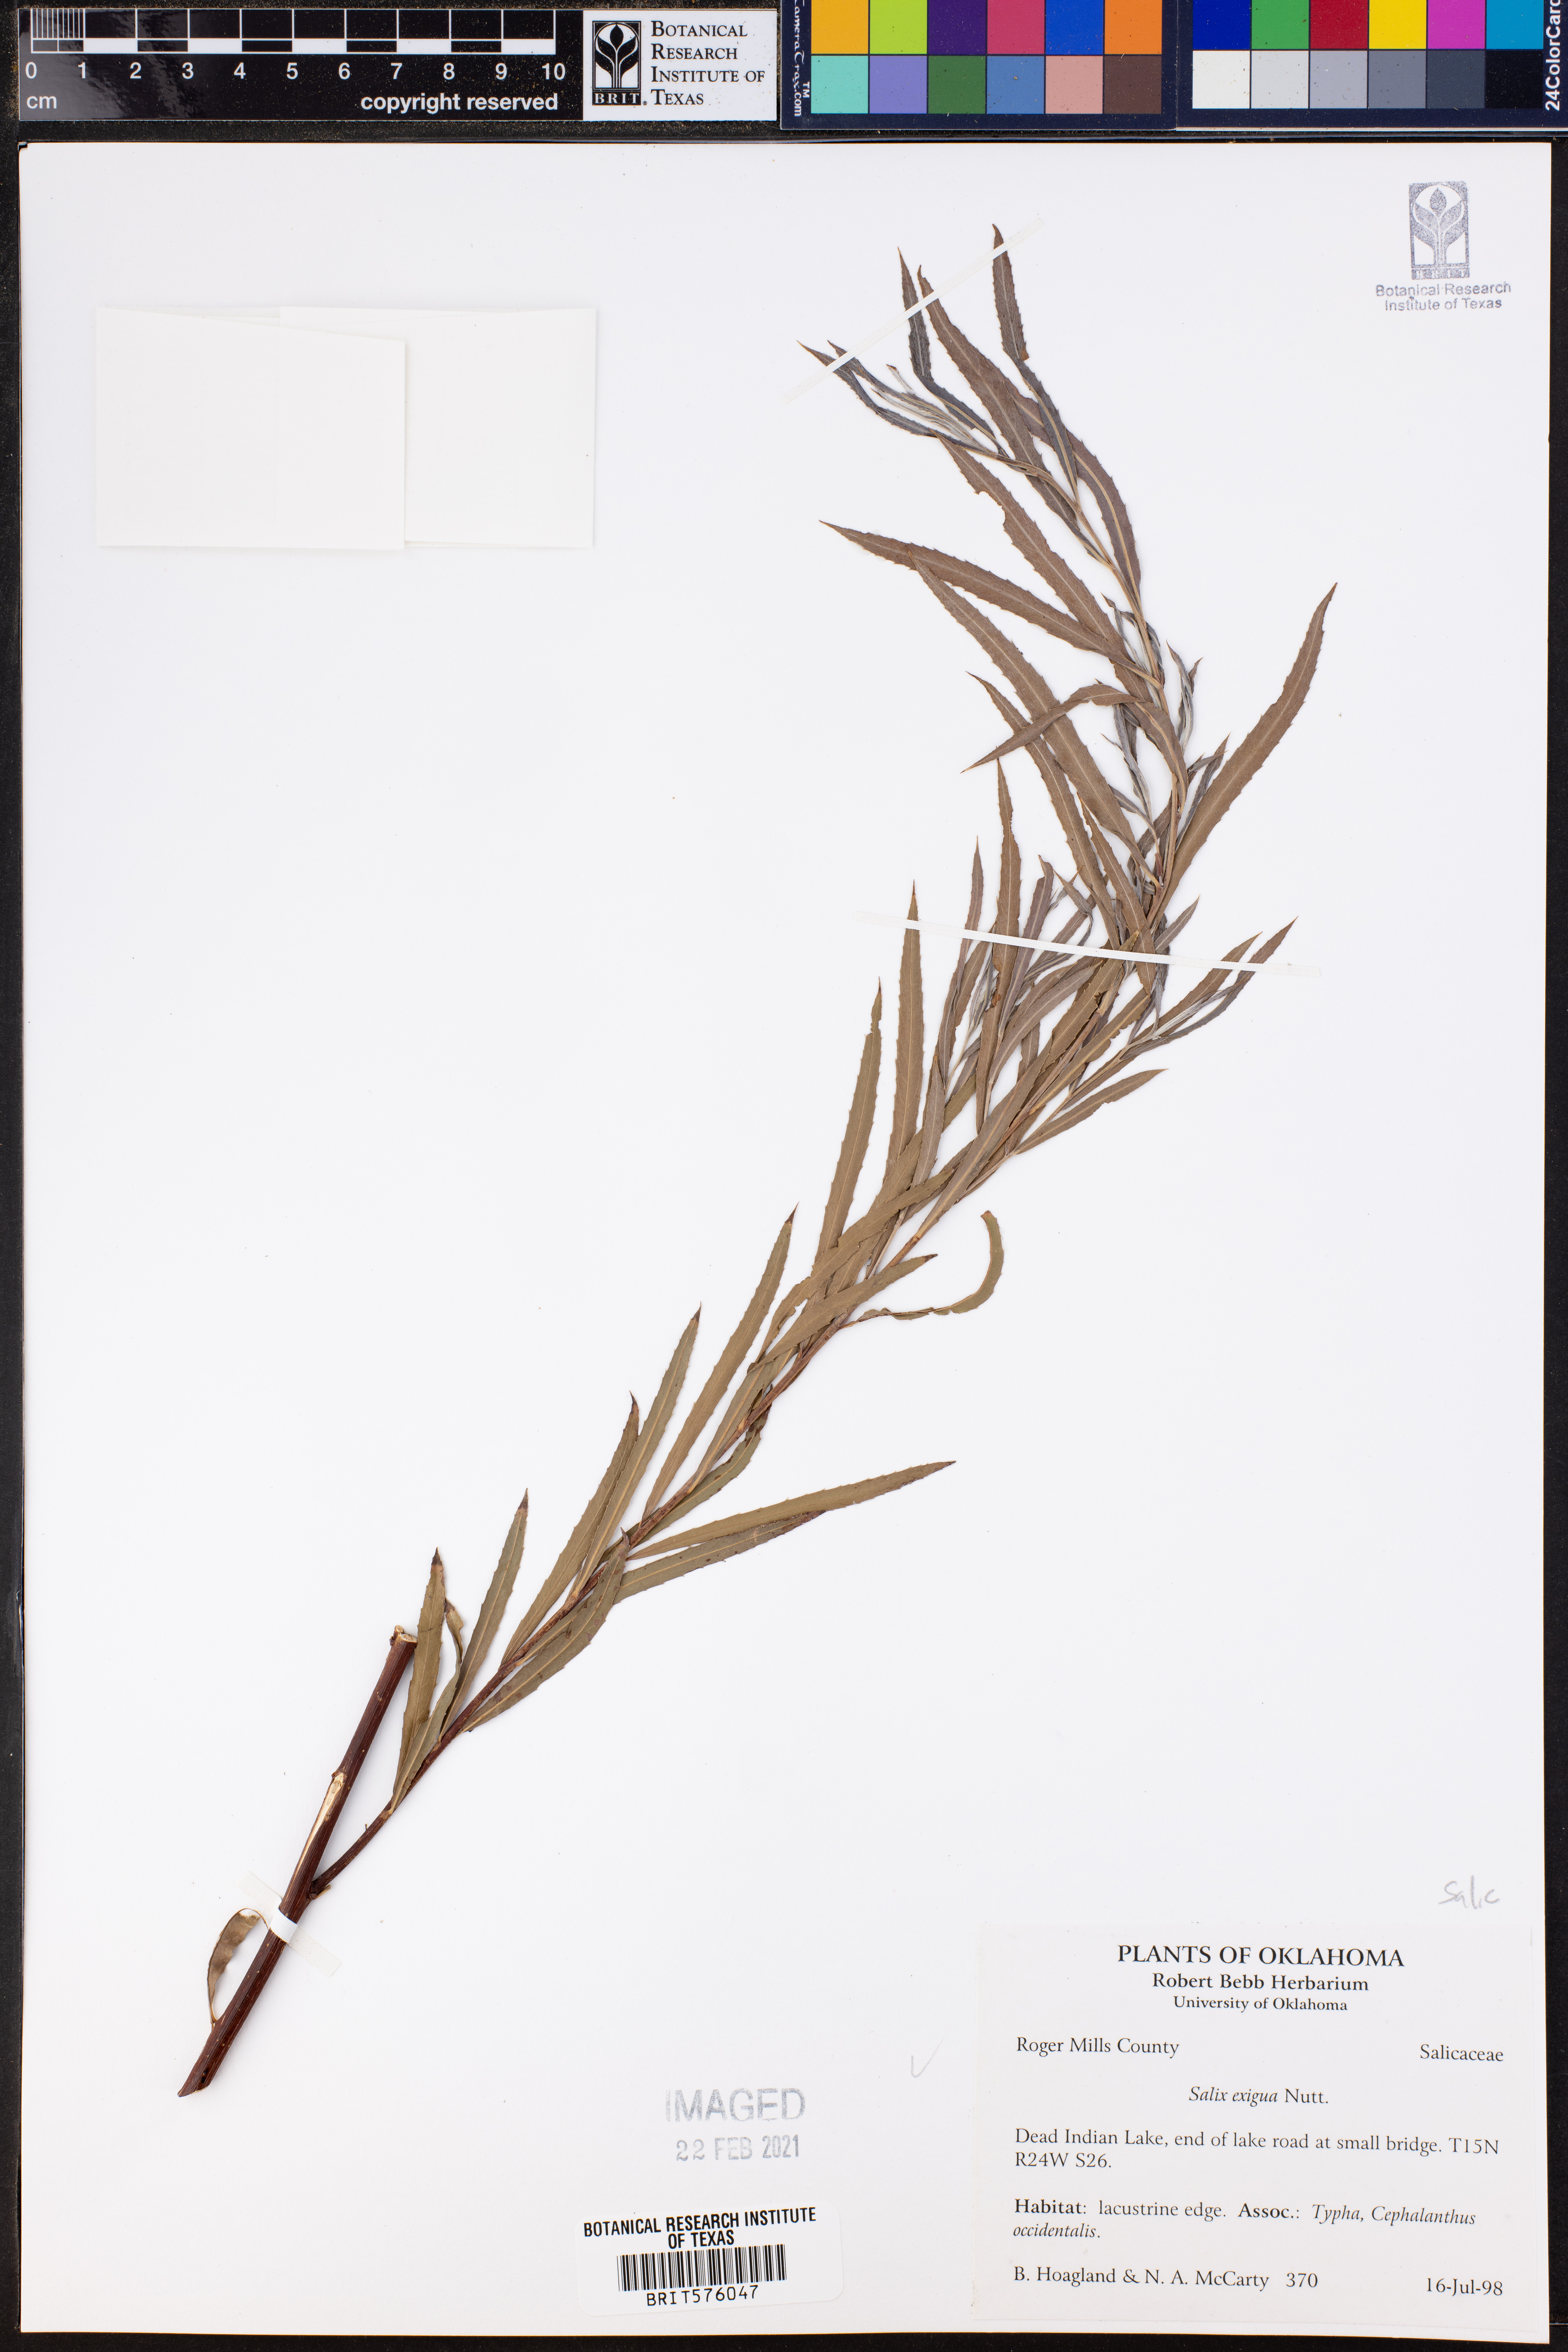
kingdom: Plantae
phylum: Tracheophyta
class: Magnoliopsida
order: Malpighiales
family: Salicaceae
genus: Salix
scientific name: Salix exigua
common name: Coyote willow
